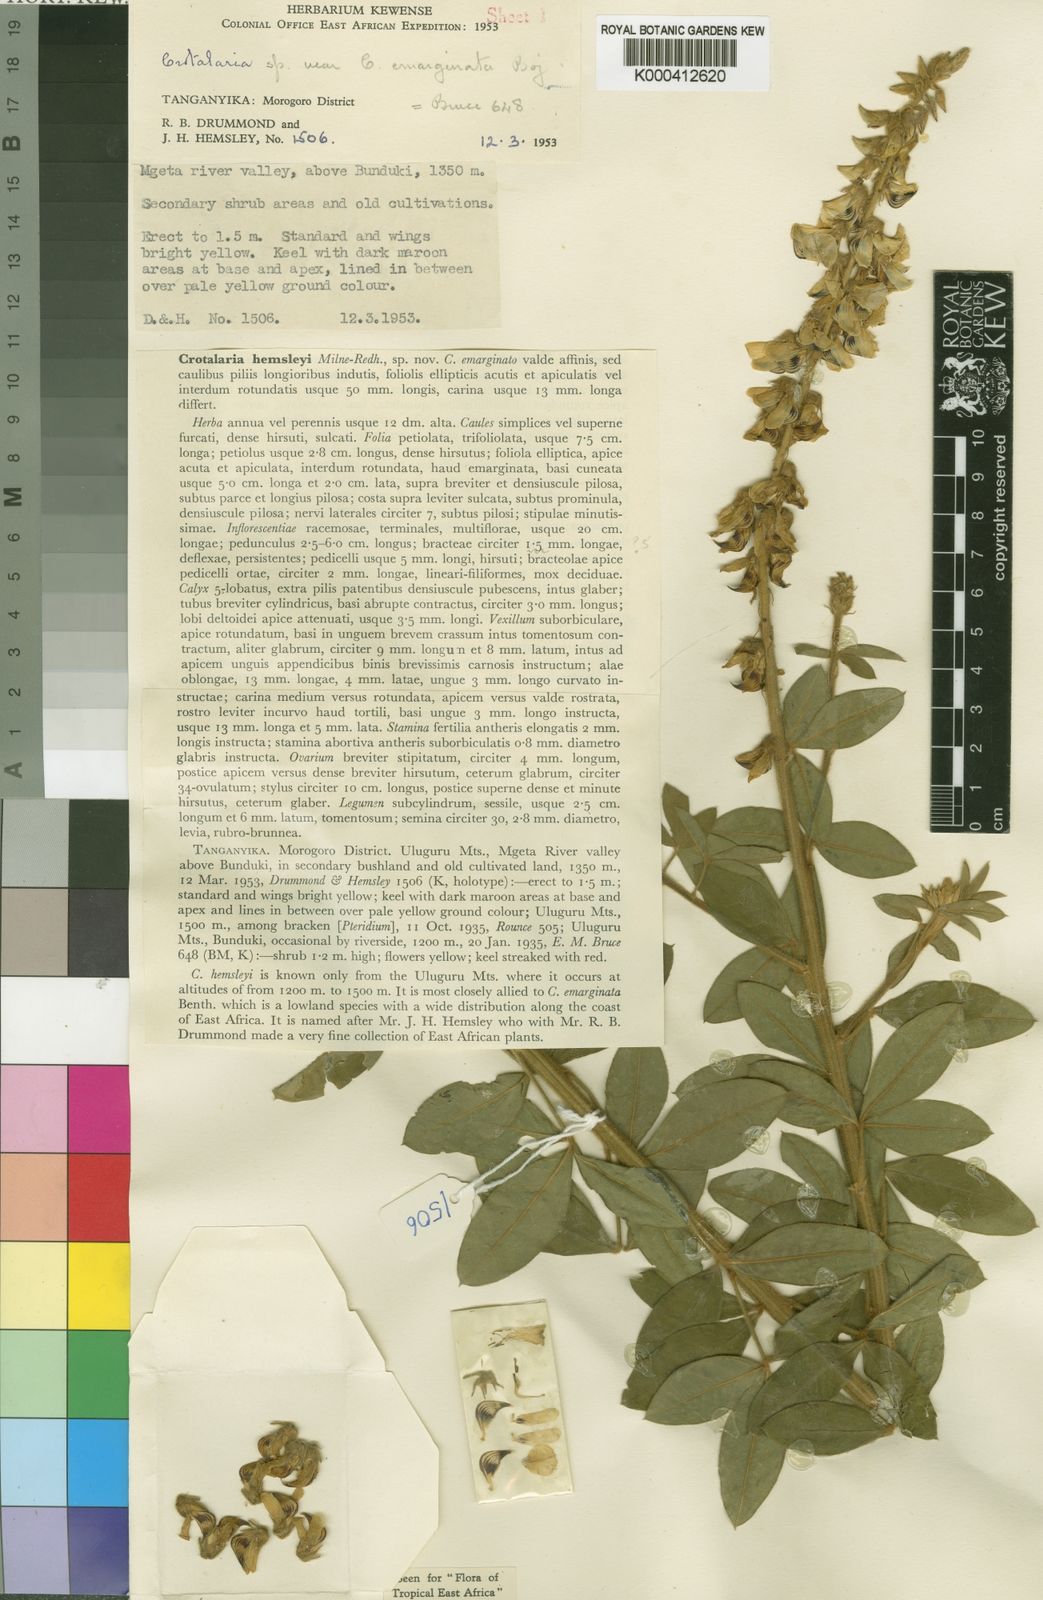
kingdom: Plantae
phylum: Tracheophyta
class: Magnoliopsida
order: Fabales
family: Fabaceae
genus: Crotalaria
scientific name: Crotalaria hemsleyi
